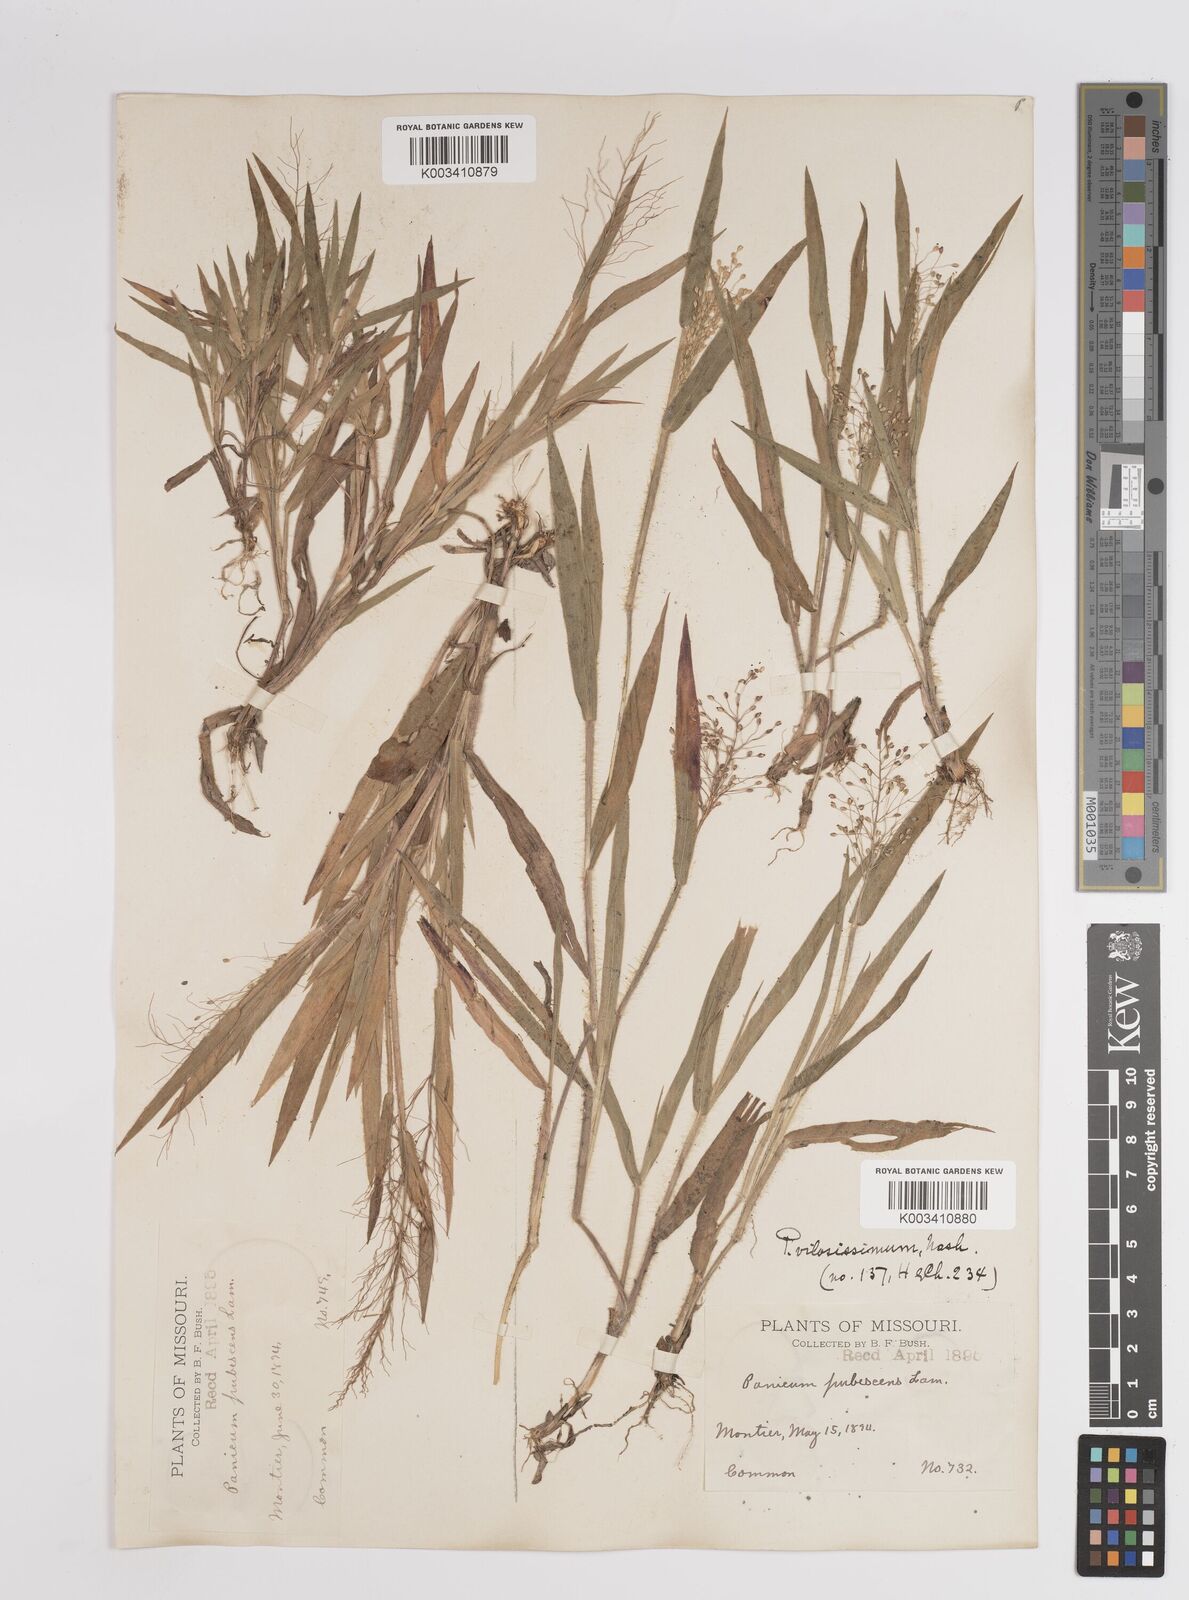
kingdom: Plantae
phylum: Tracheophyta
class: Liliopsida
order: Poales
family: Poaceae
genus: Dichanthelium
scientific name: Dichanthelium villosissimum
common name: White-haired panicgrass
